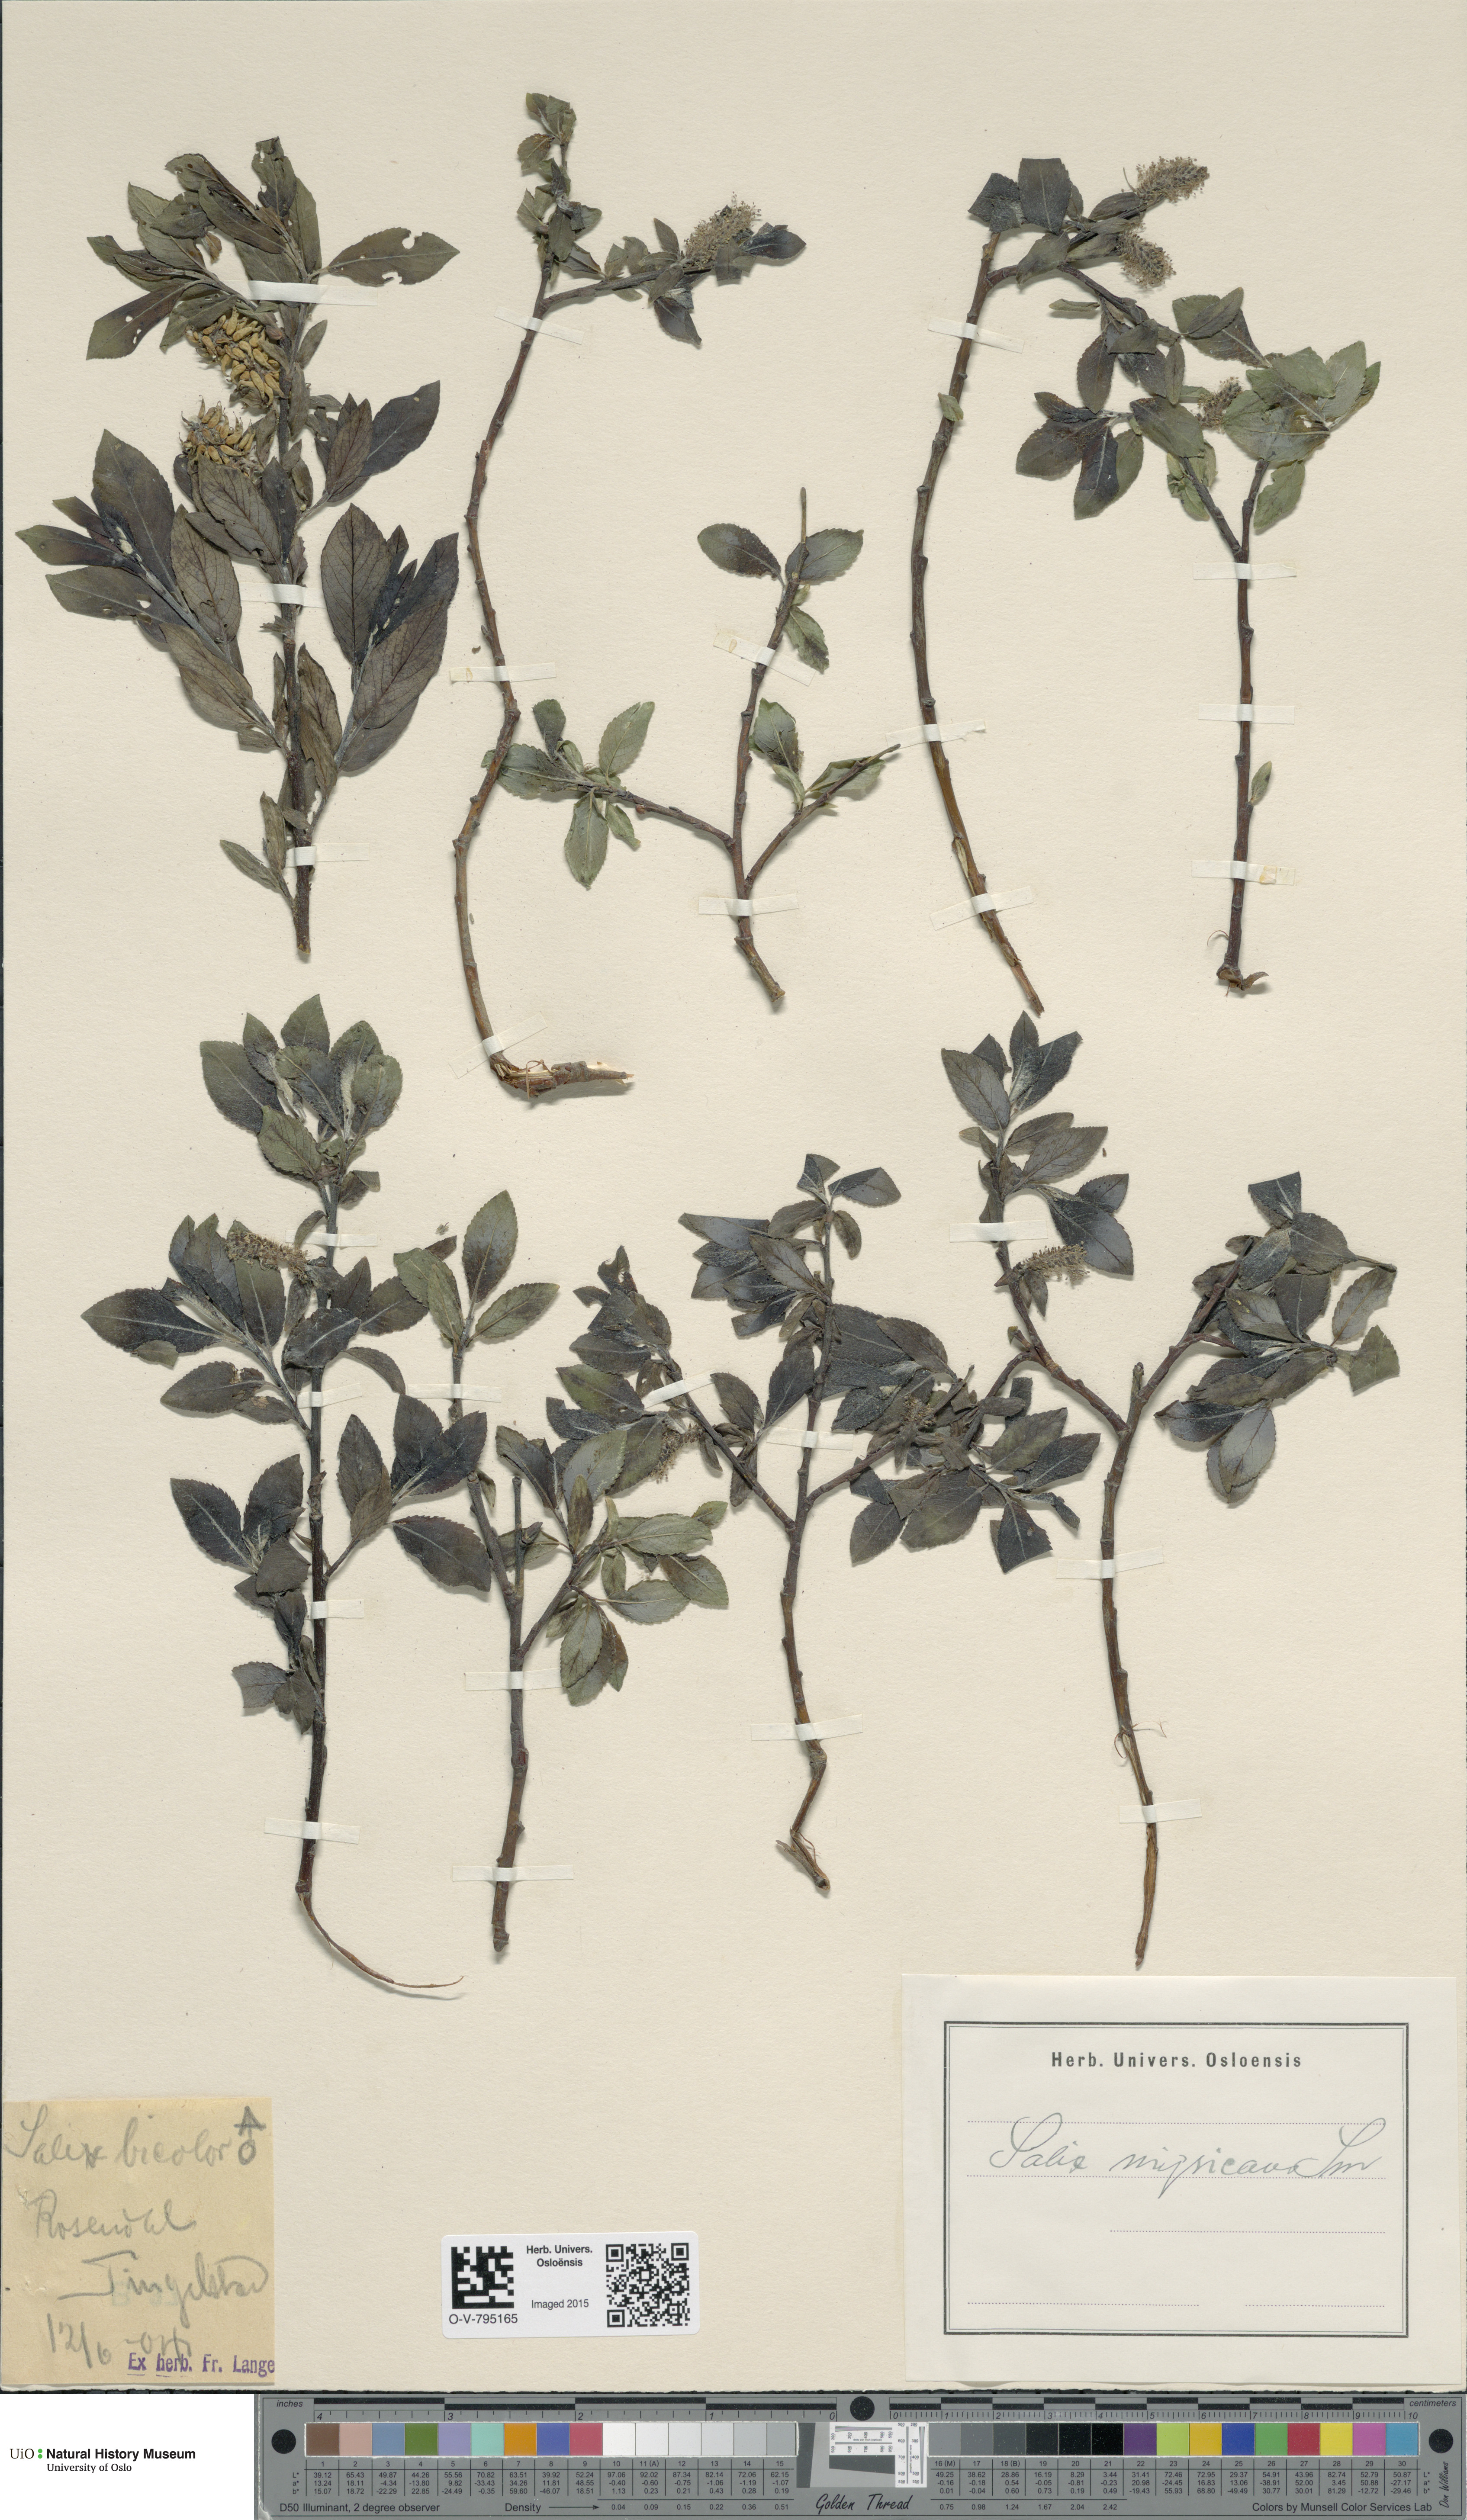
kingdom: Plantae
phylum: Tracheophyta
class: Magnoliopsida
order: Malpighiales
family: Salicaceae
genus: Salix
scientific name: Salix myrsinifolia
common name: Dark-leaved willow
